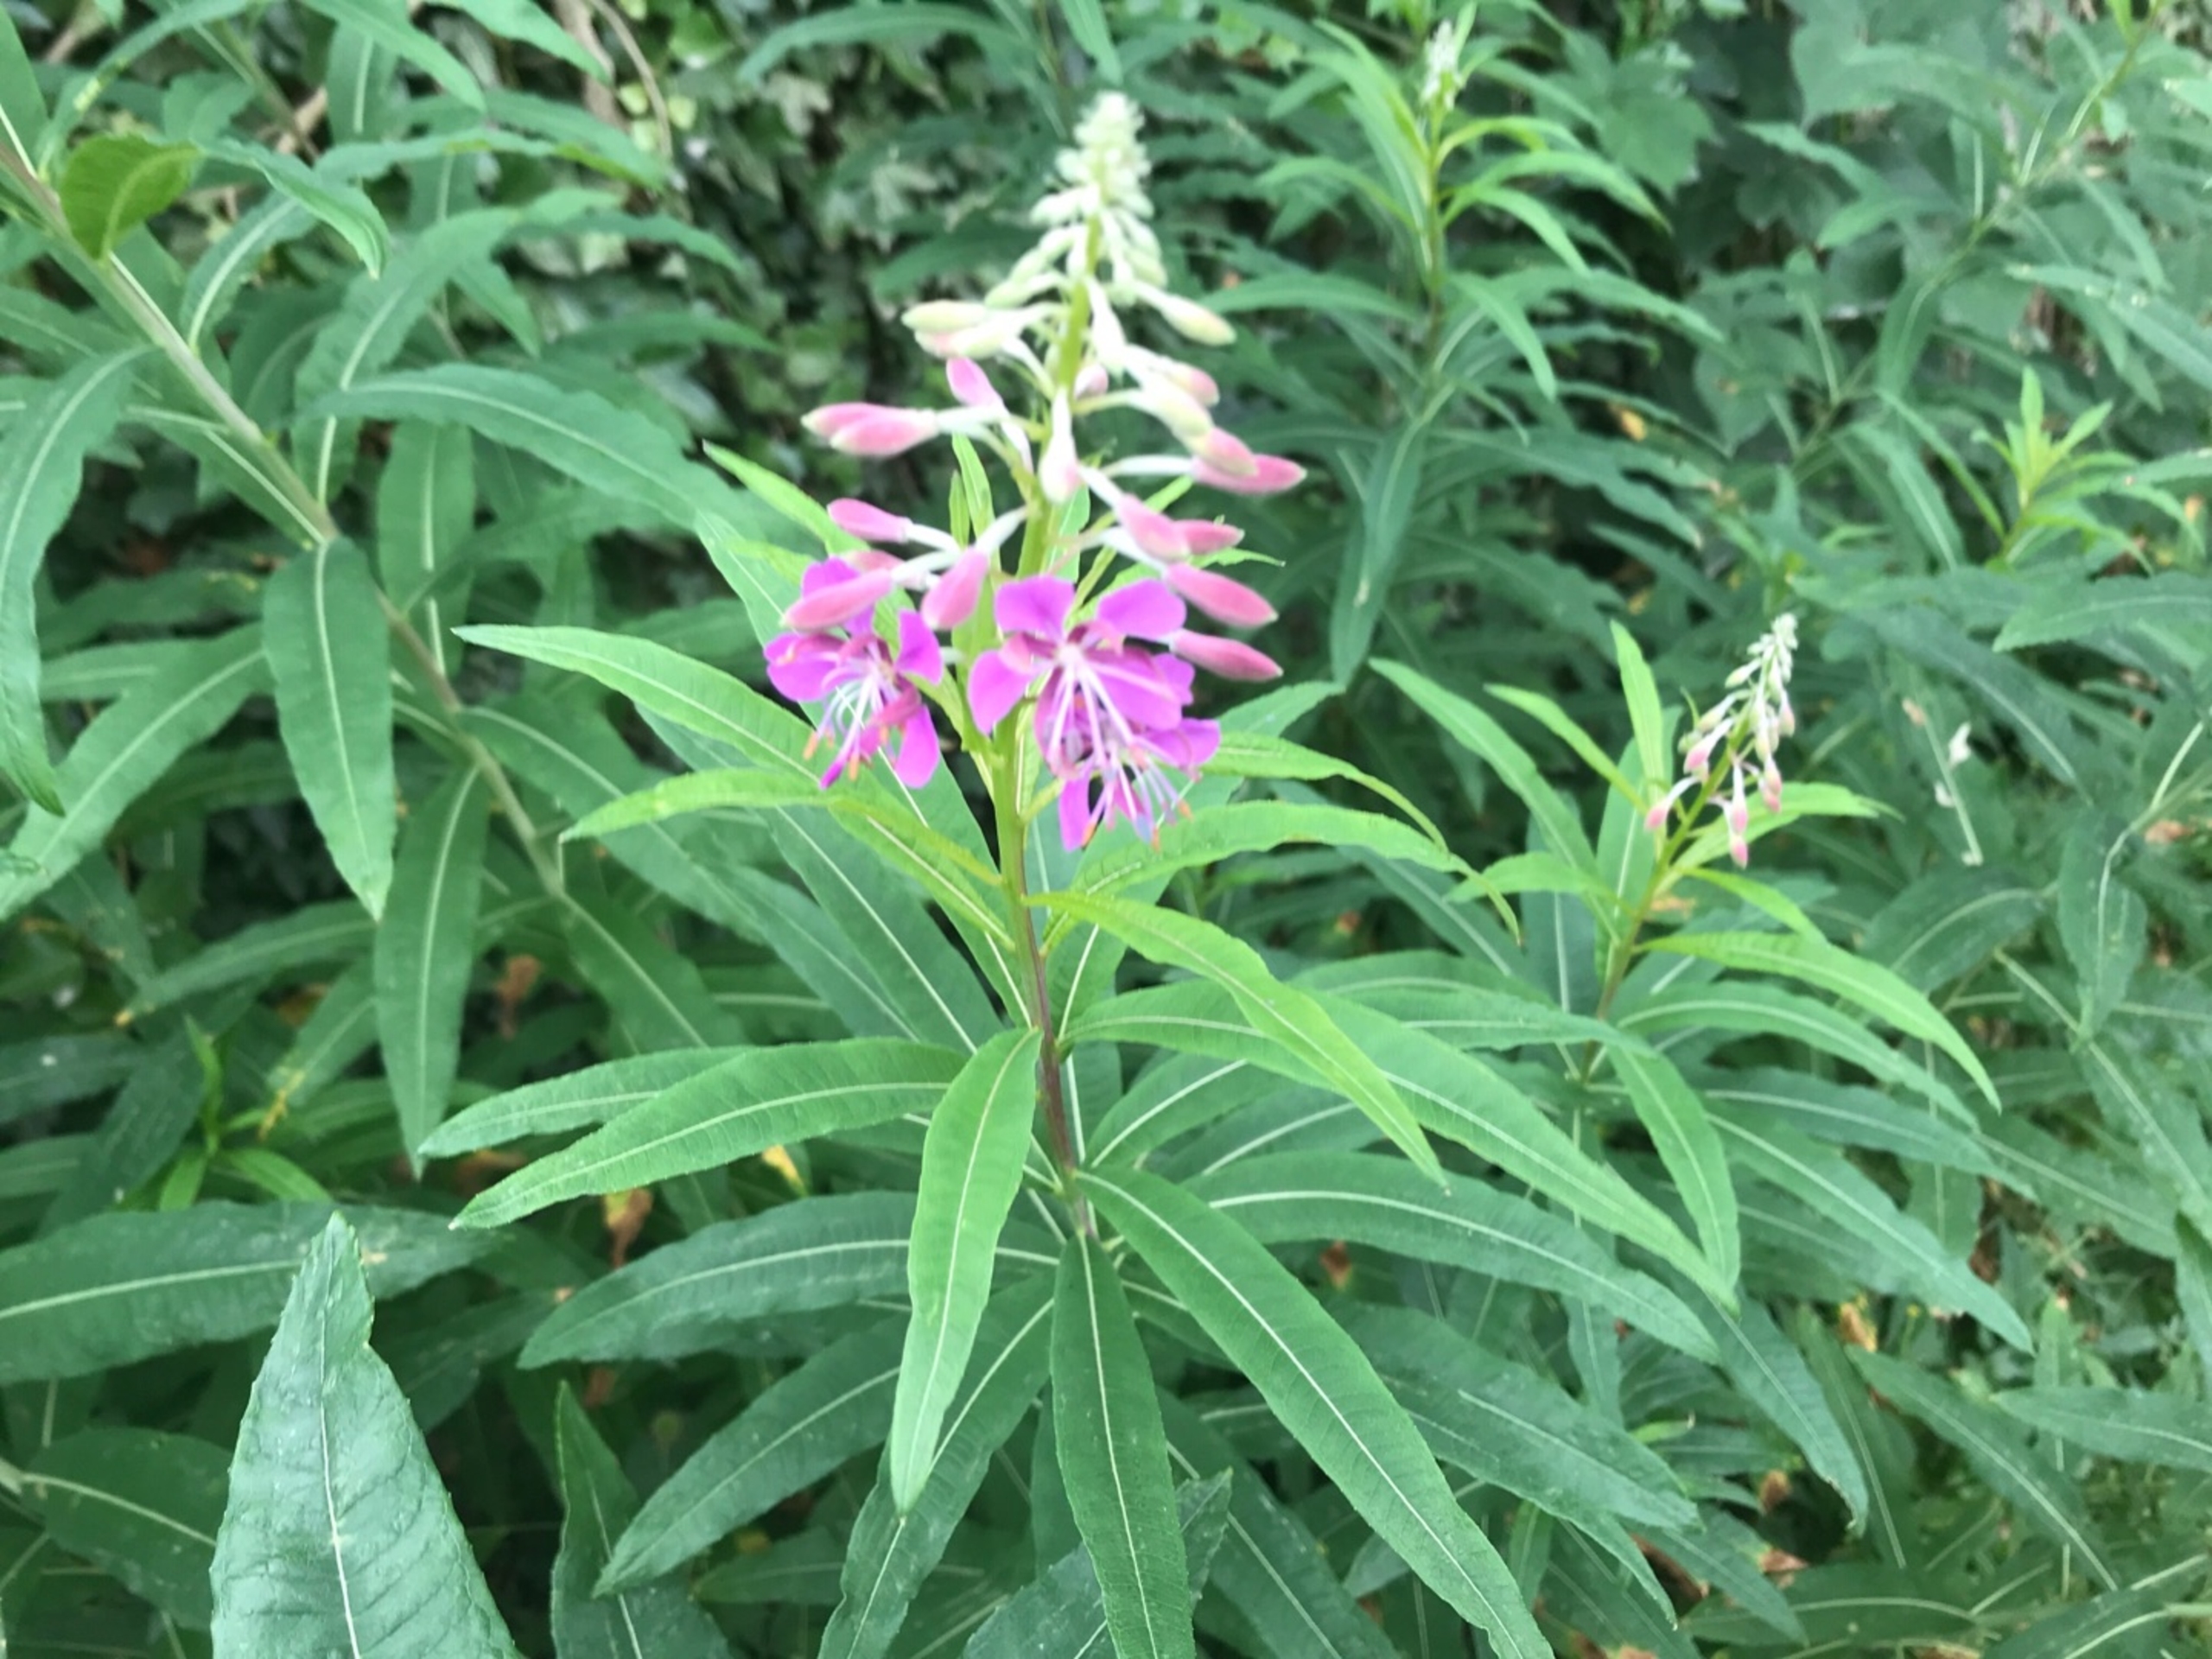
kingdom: Plantae
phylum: Tracheophyta
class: Magnoliopsida
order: Myrtales
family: Onagraceae
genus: Chamaenerion
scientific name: Chamaenerion angustifolium
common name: Gederams
